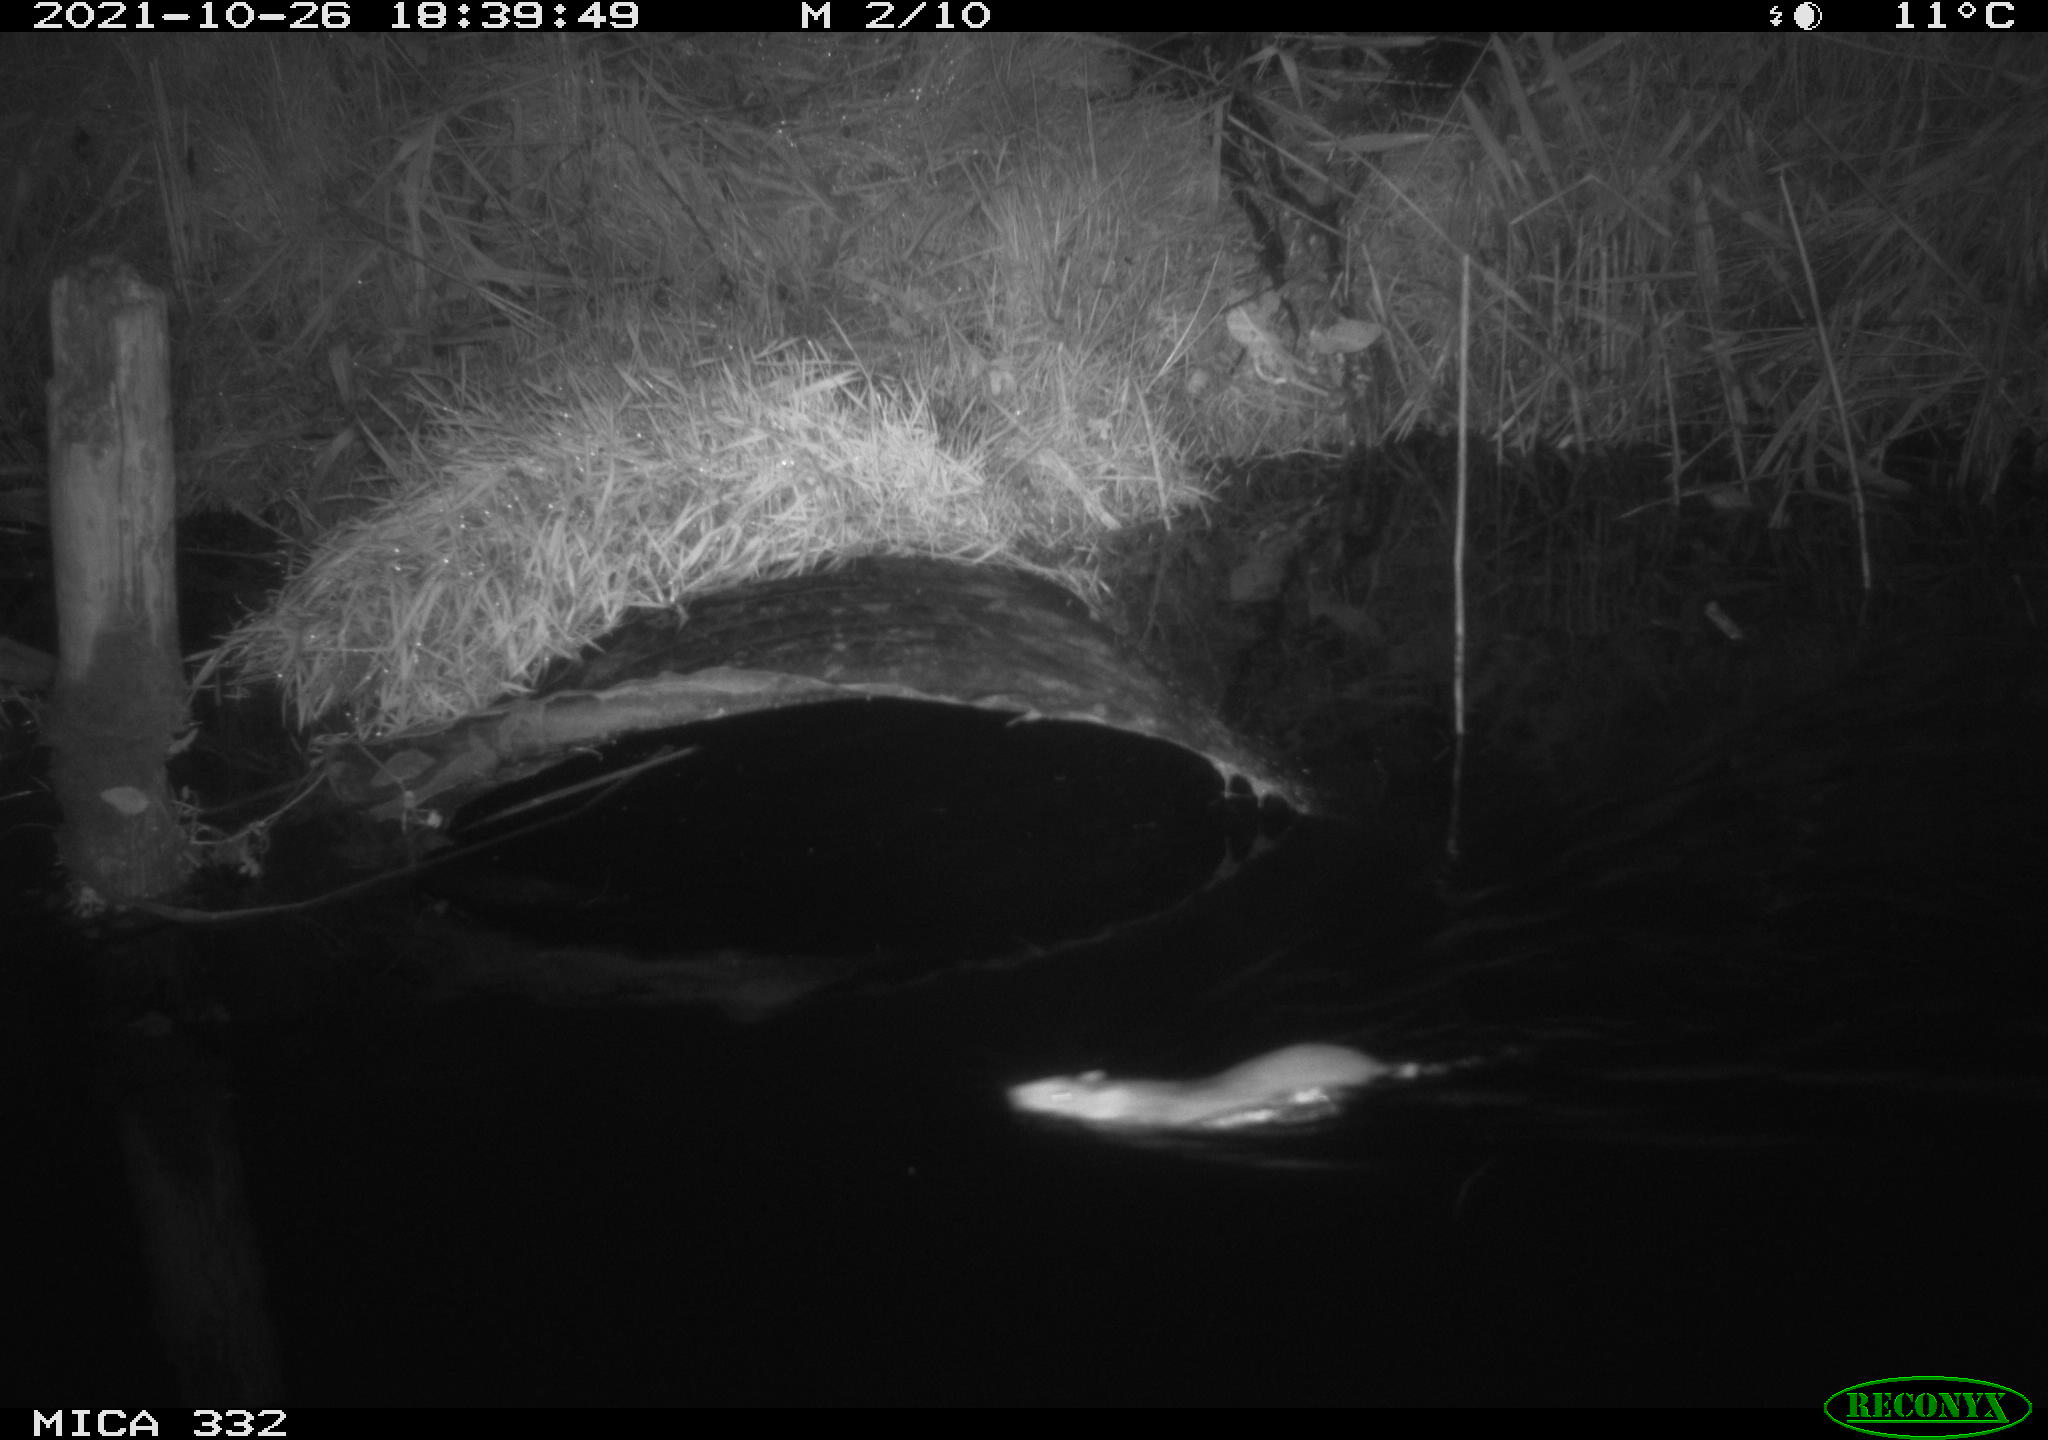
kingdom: Animalia
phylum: Chordata
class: Mammalia
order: Rodentia
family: Muridae
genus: Rattus
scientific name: Rattus norvegicus
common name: Brown rat
